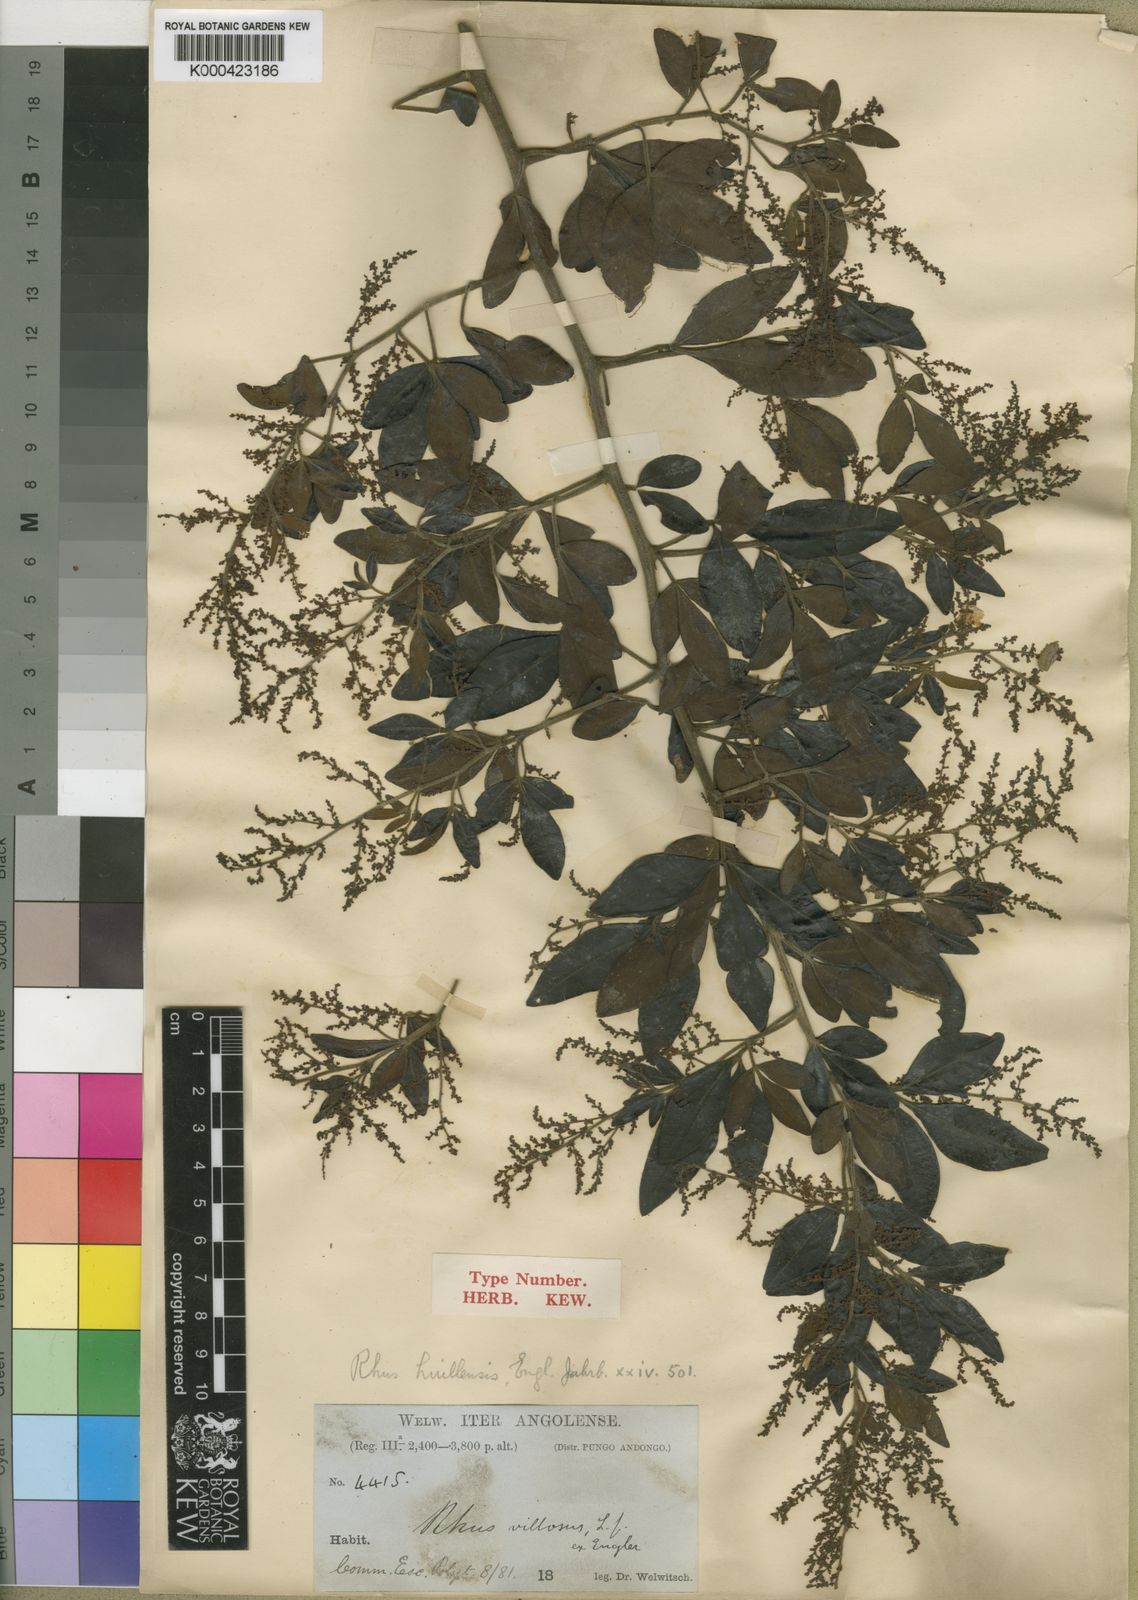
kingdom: Plantae
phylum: Tracheophyta
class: Magnoliopsida
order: Sapindales
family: Anacardiaceae
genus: Searsia
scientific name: Searsia quartiniana
